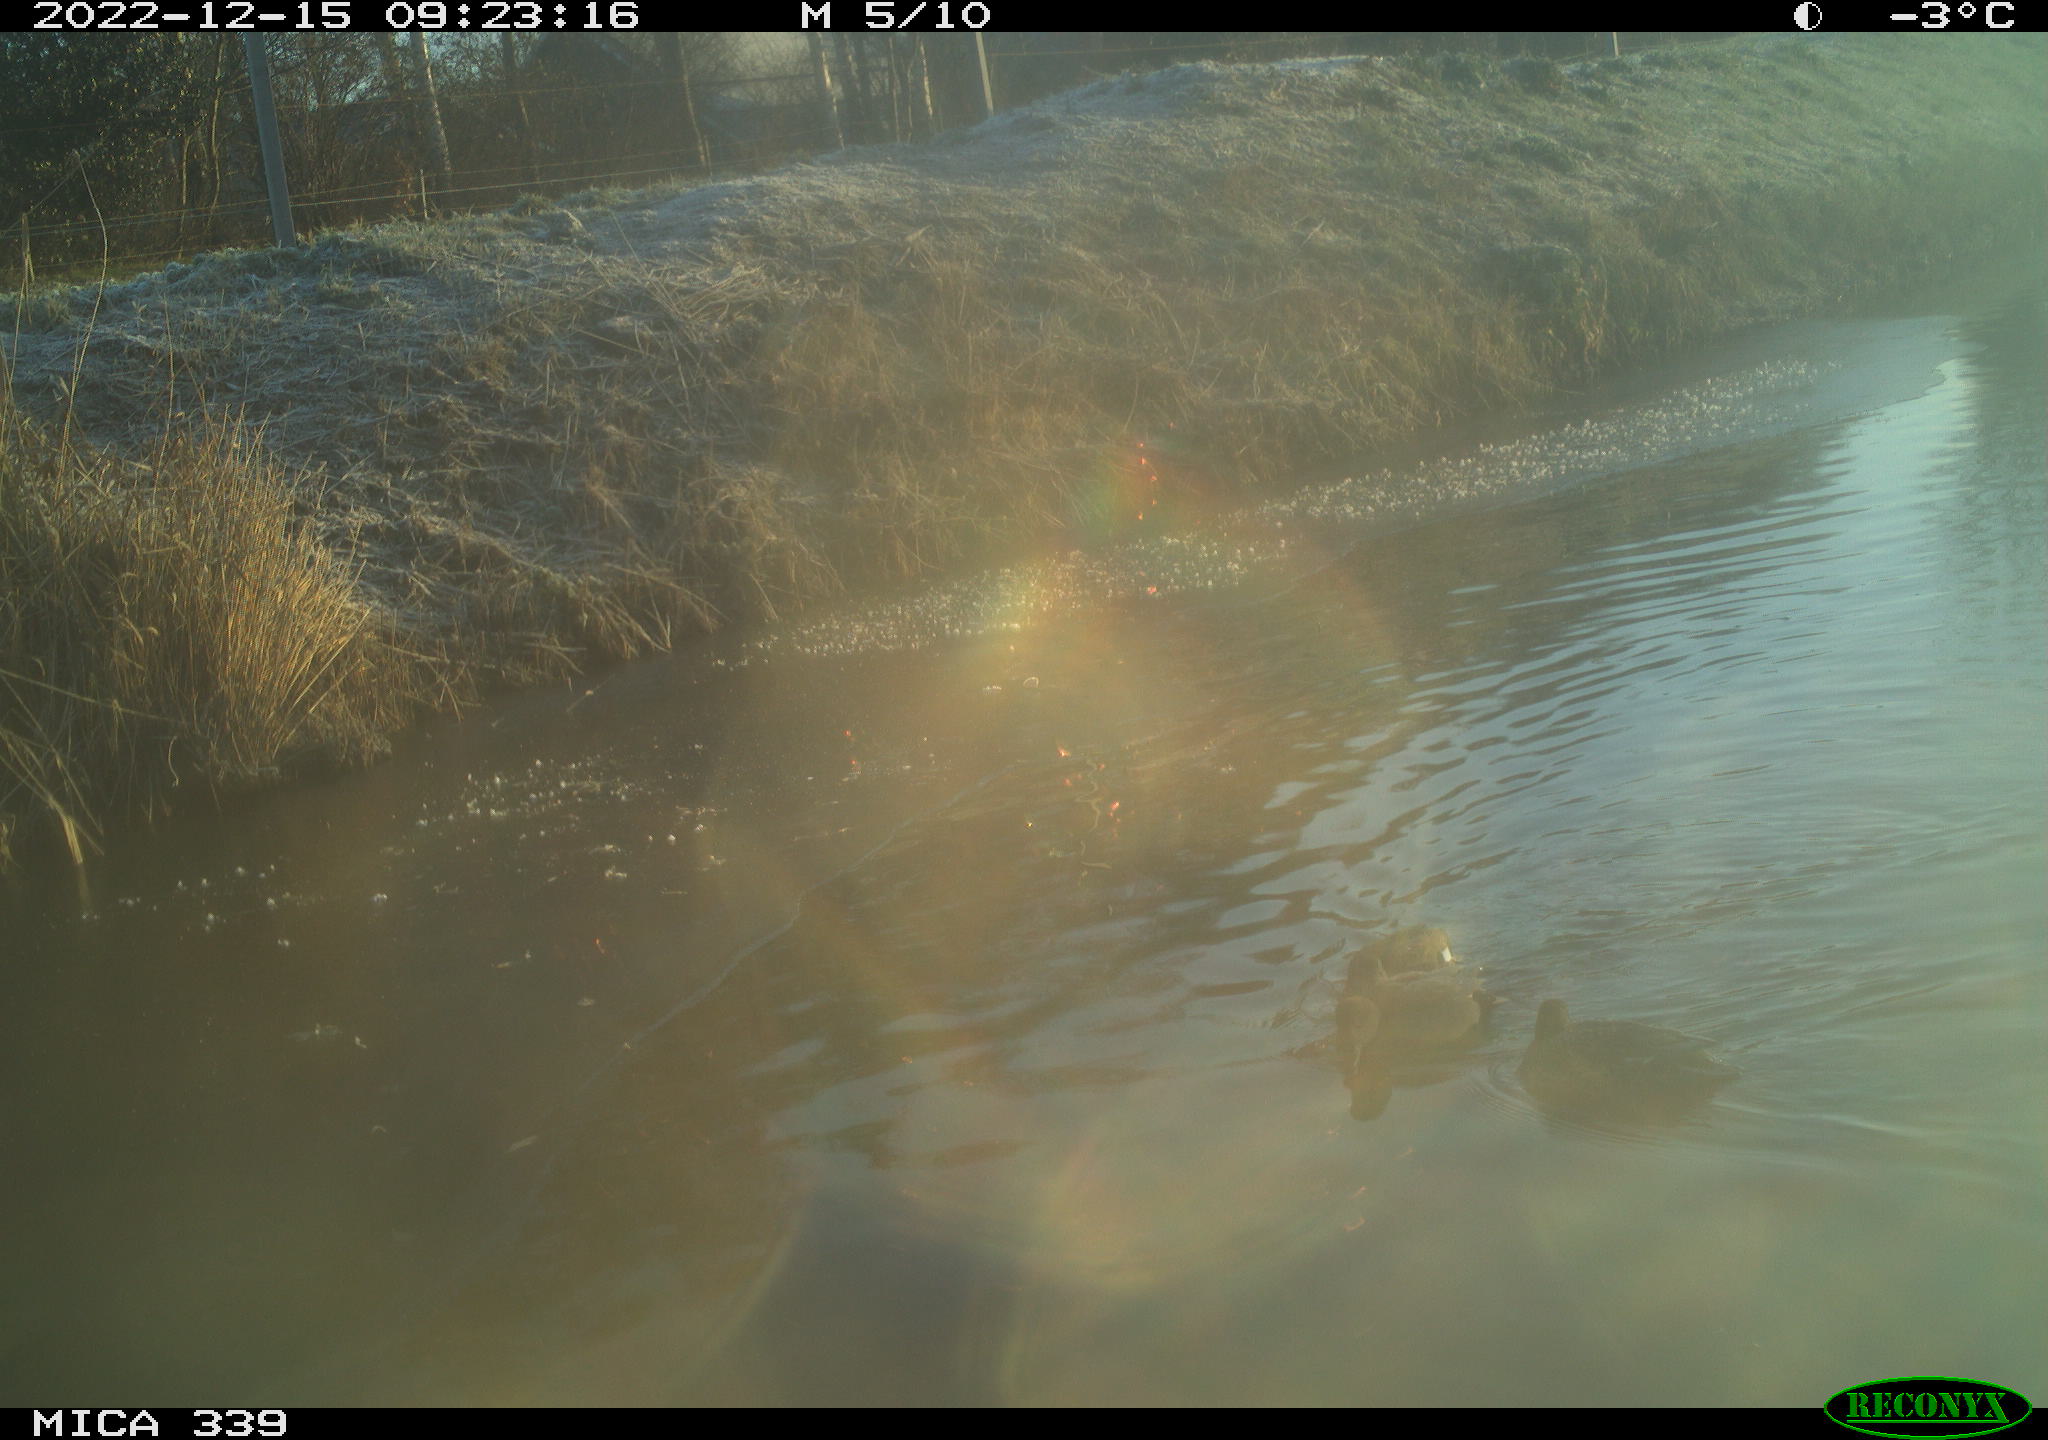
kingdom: Animalia
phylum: Chordata
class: Aves
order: Gruiformes
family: Rallidae
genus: Fulica
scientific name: Fulica atra
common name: Eurasian coot
